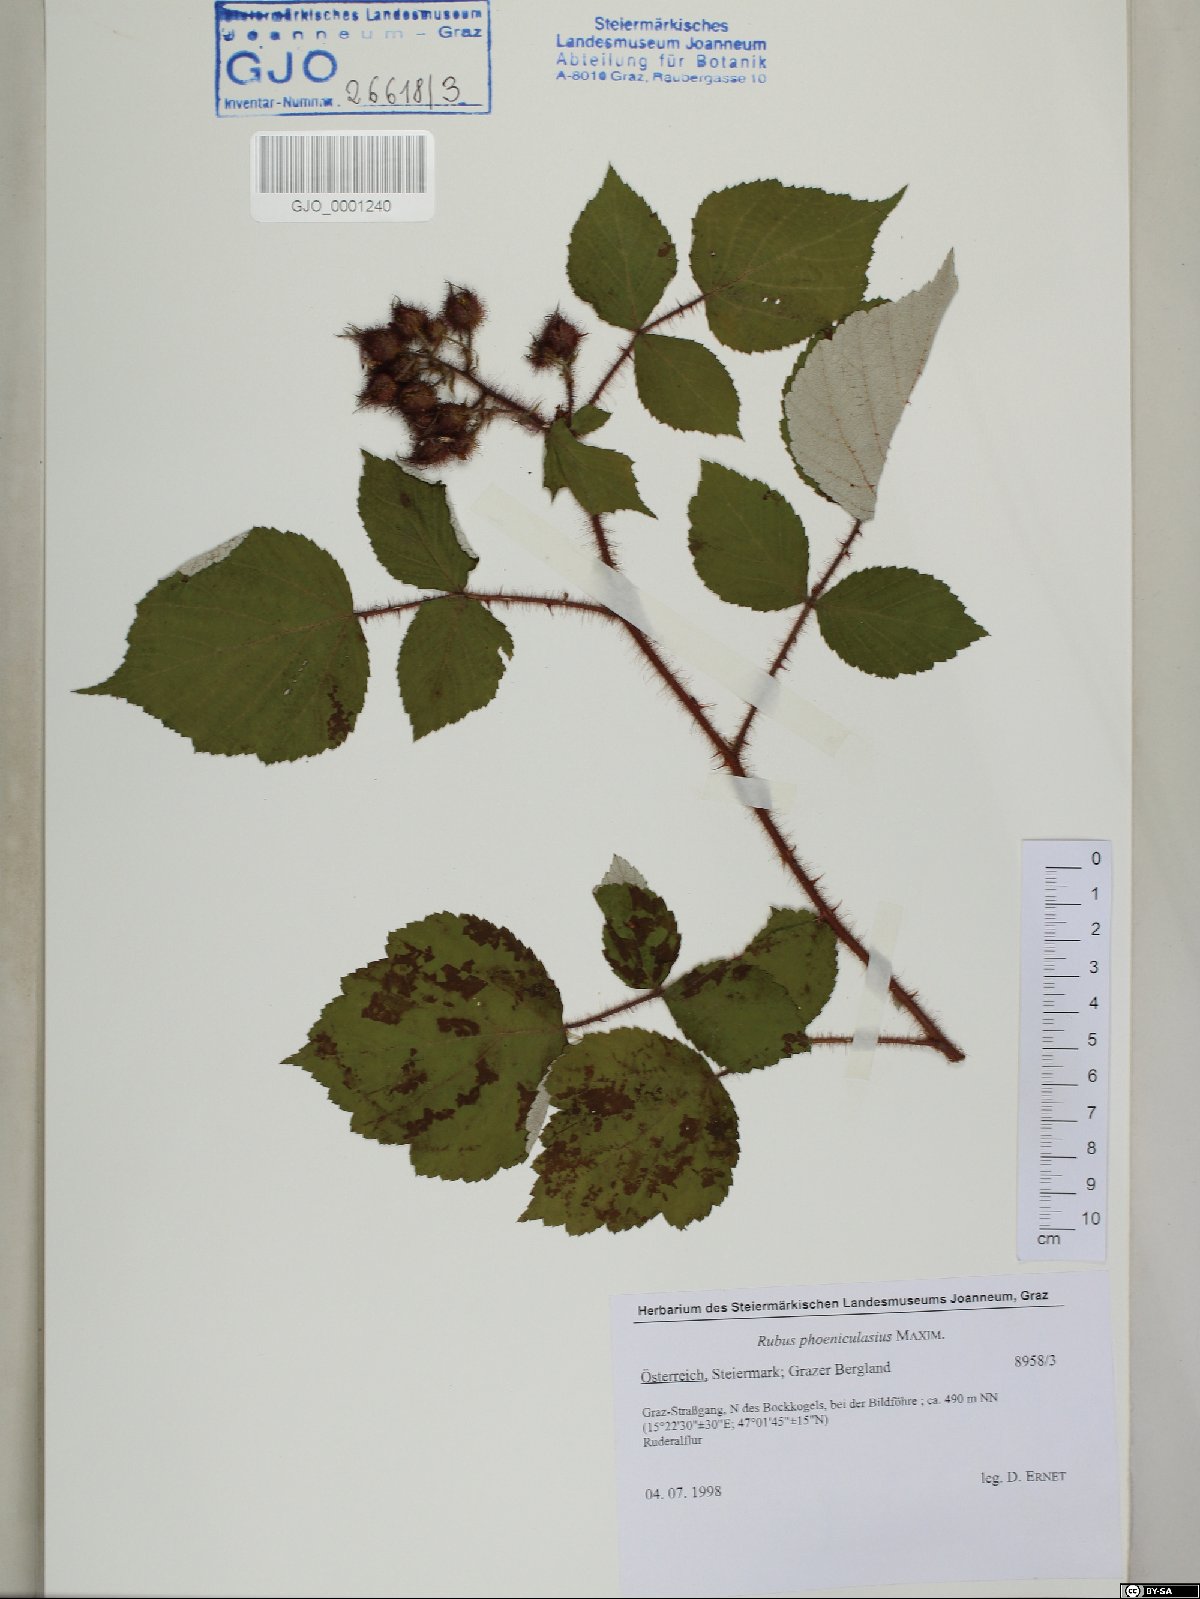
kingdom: Plantae
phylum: Tracheophyta
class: Magnoliopsida
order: Rosales
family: Rosaceae
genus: Rubus
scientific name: Rubus phoenicolasius
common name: Japanese wineberry
